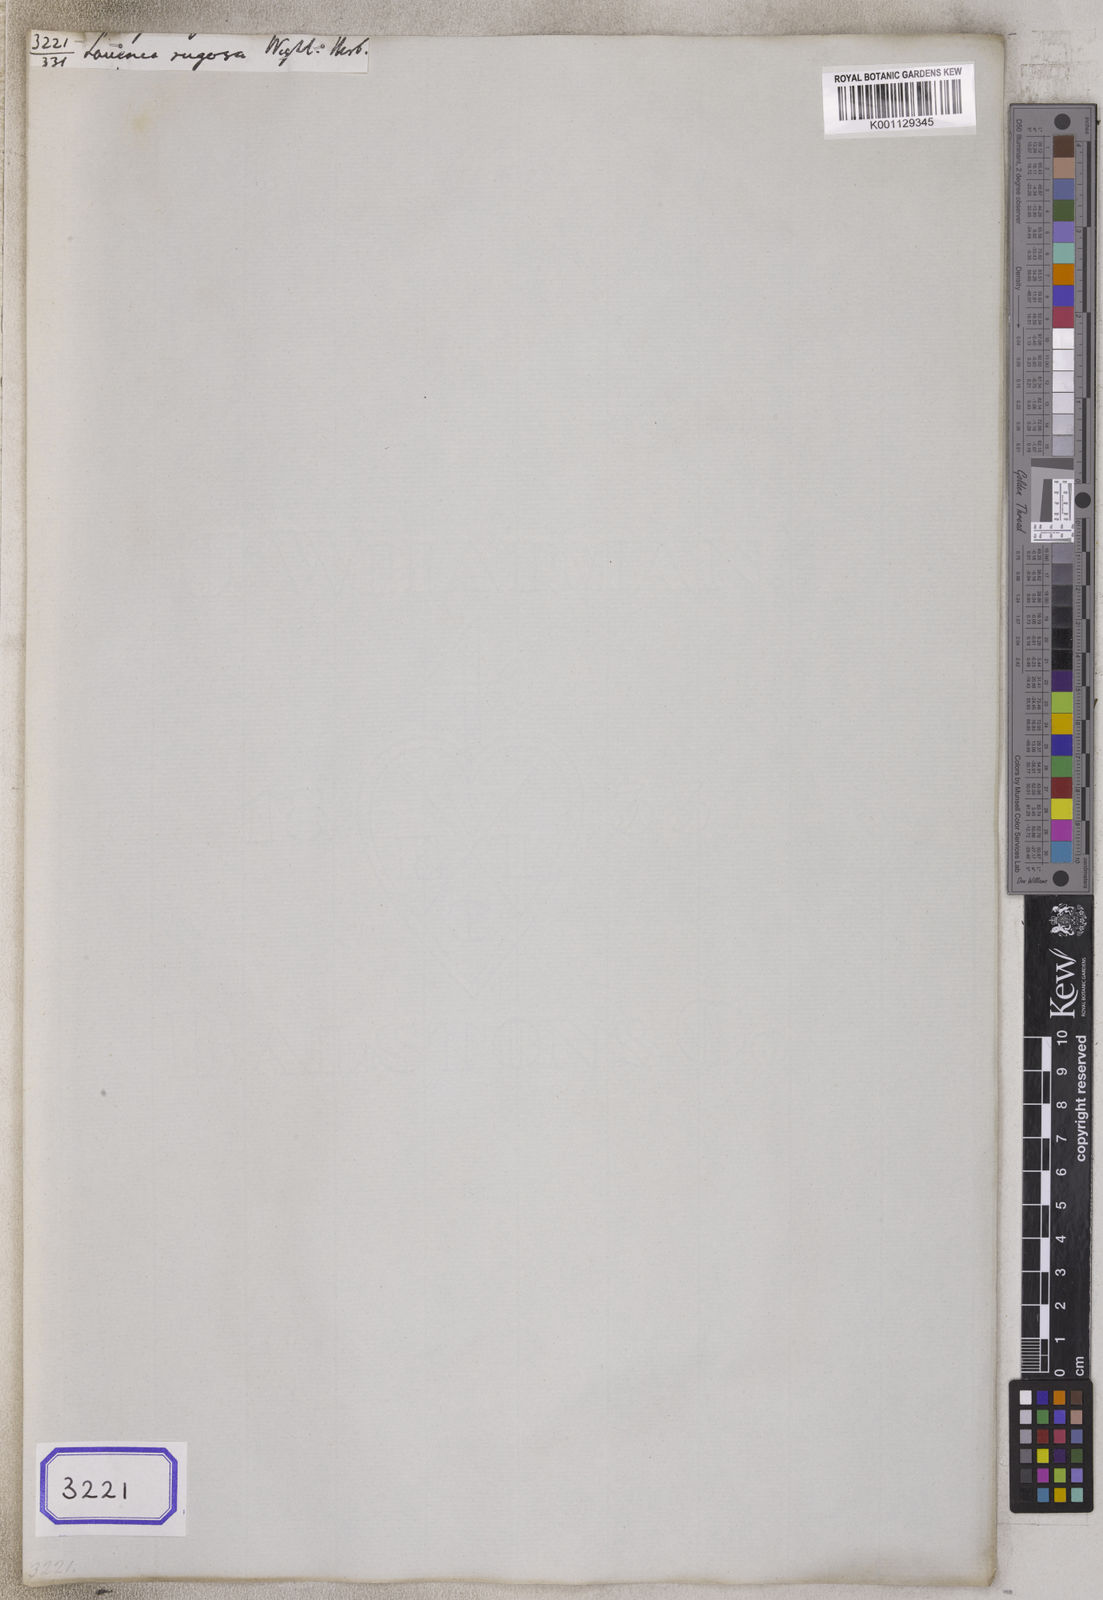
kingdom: Plantae
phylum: Tracheophyta
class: Magnoliopsida
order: Asterales
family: Asteraceae
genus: Adenostemma
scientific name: Adenostemma lavenia
